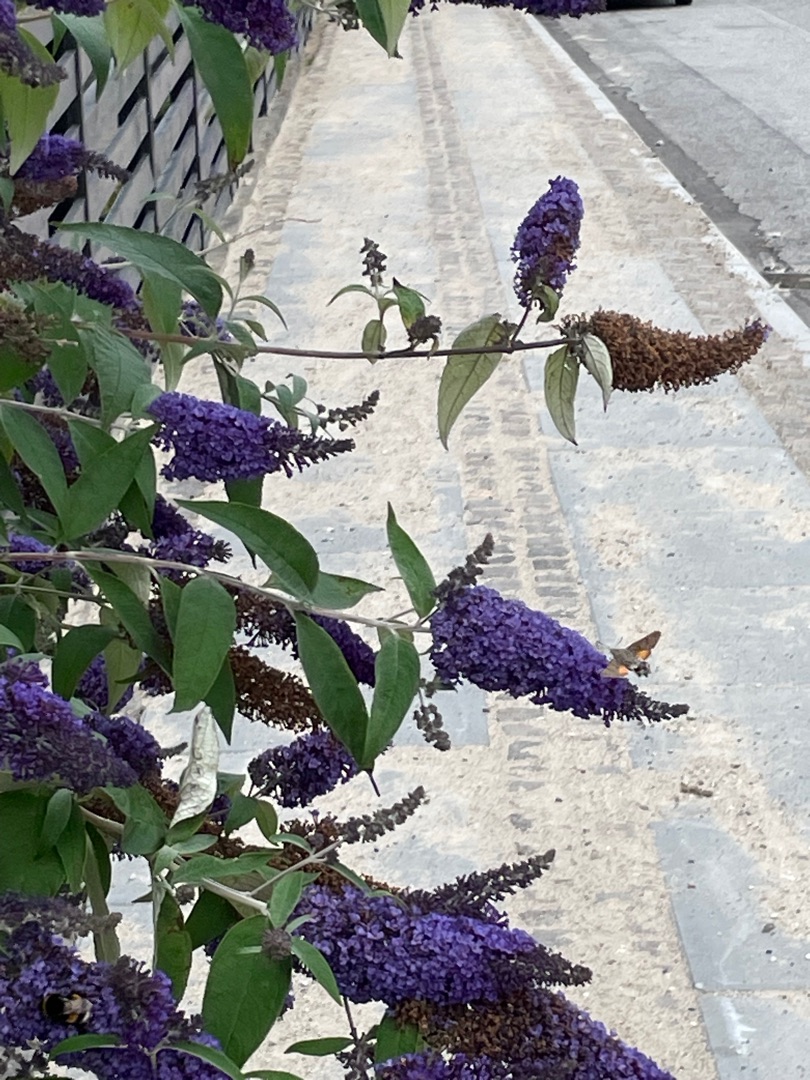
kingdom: Animalia
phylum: Arthropoda
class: Insecta
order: Lepidoptera
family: Sphingidae
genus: Macroglossum
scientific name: Macroglossum stellatarum
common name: Duehale
